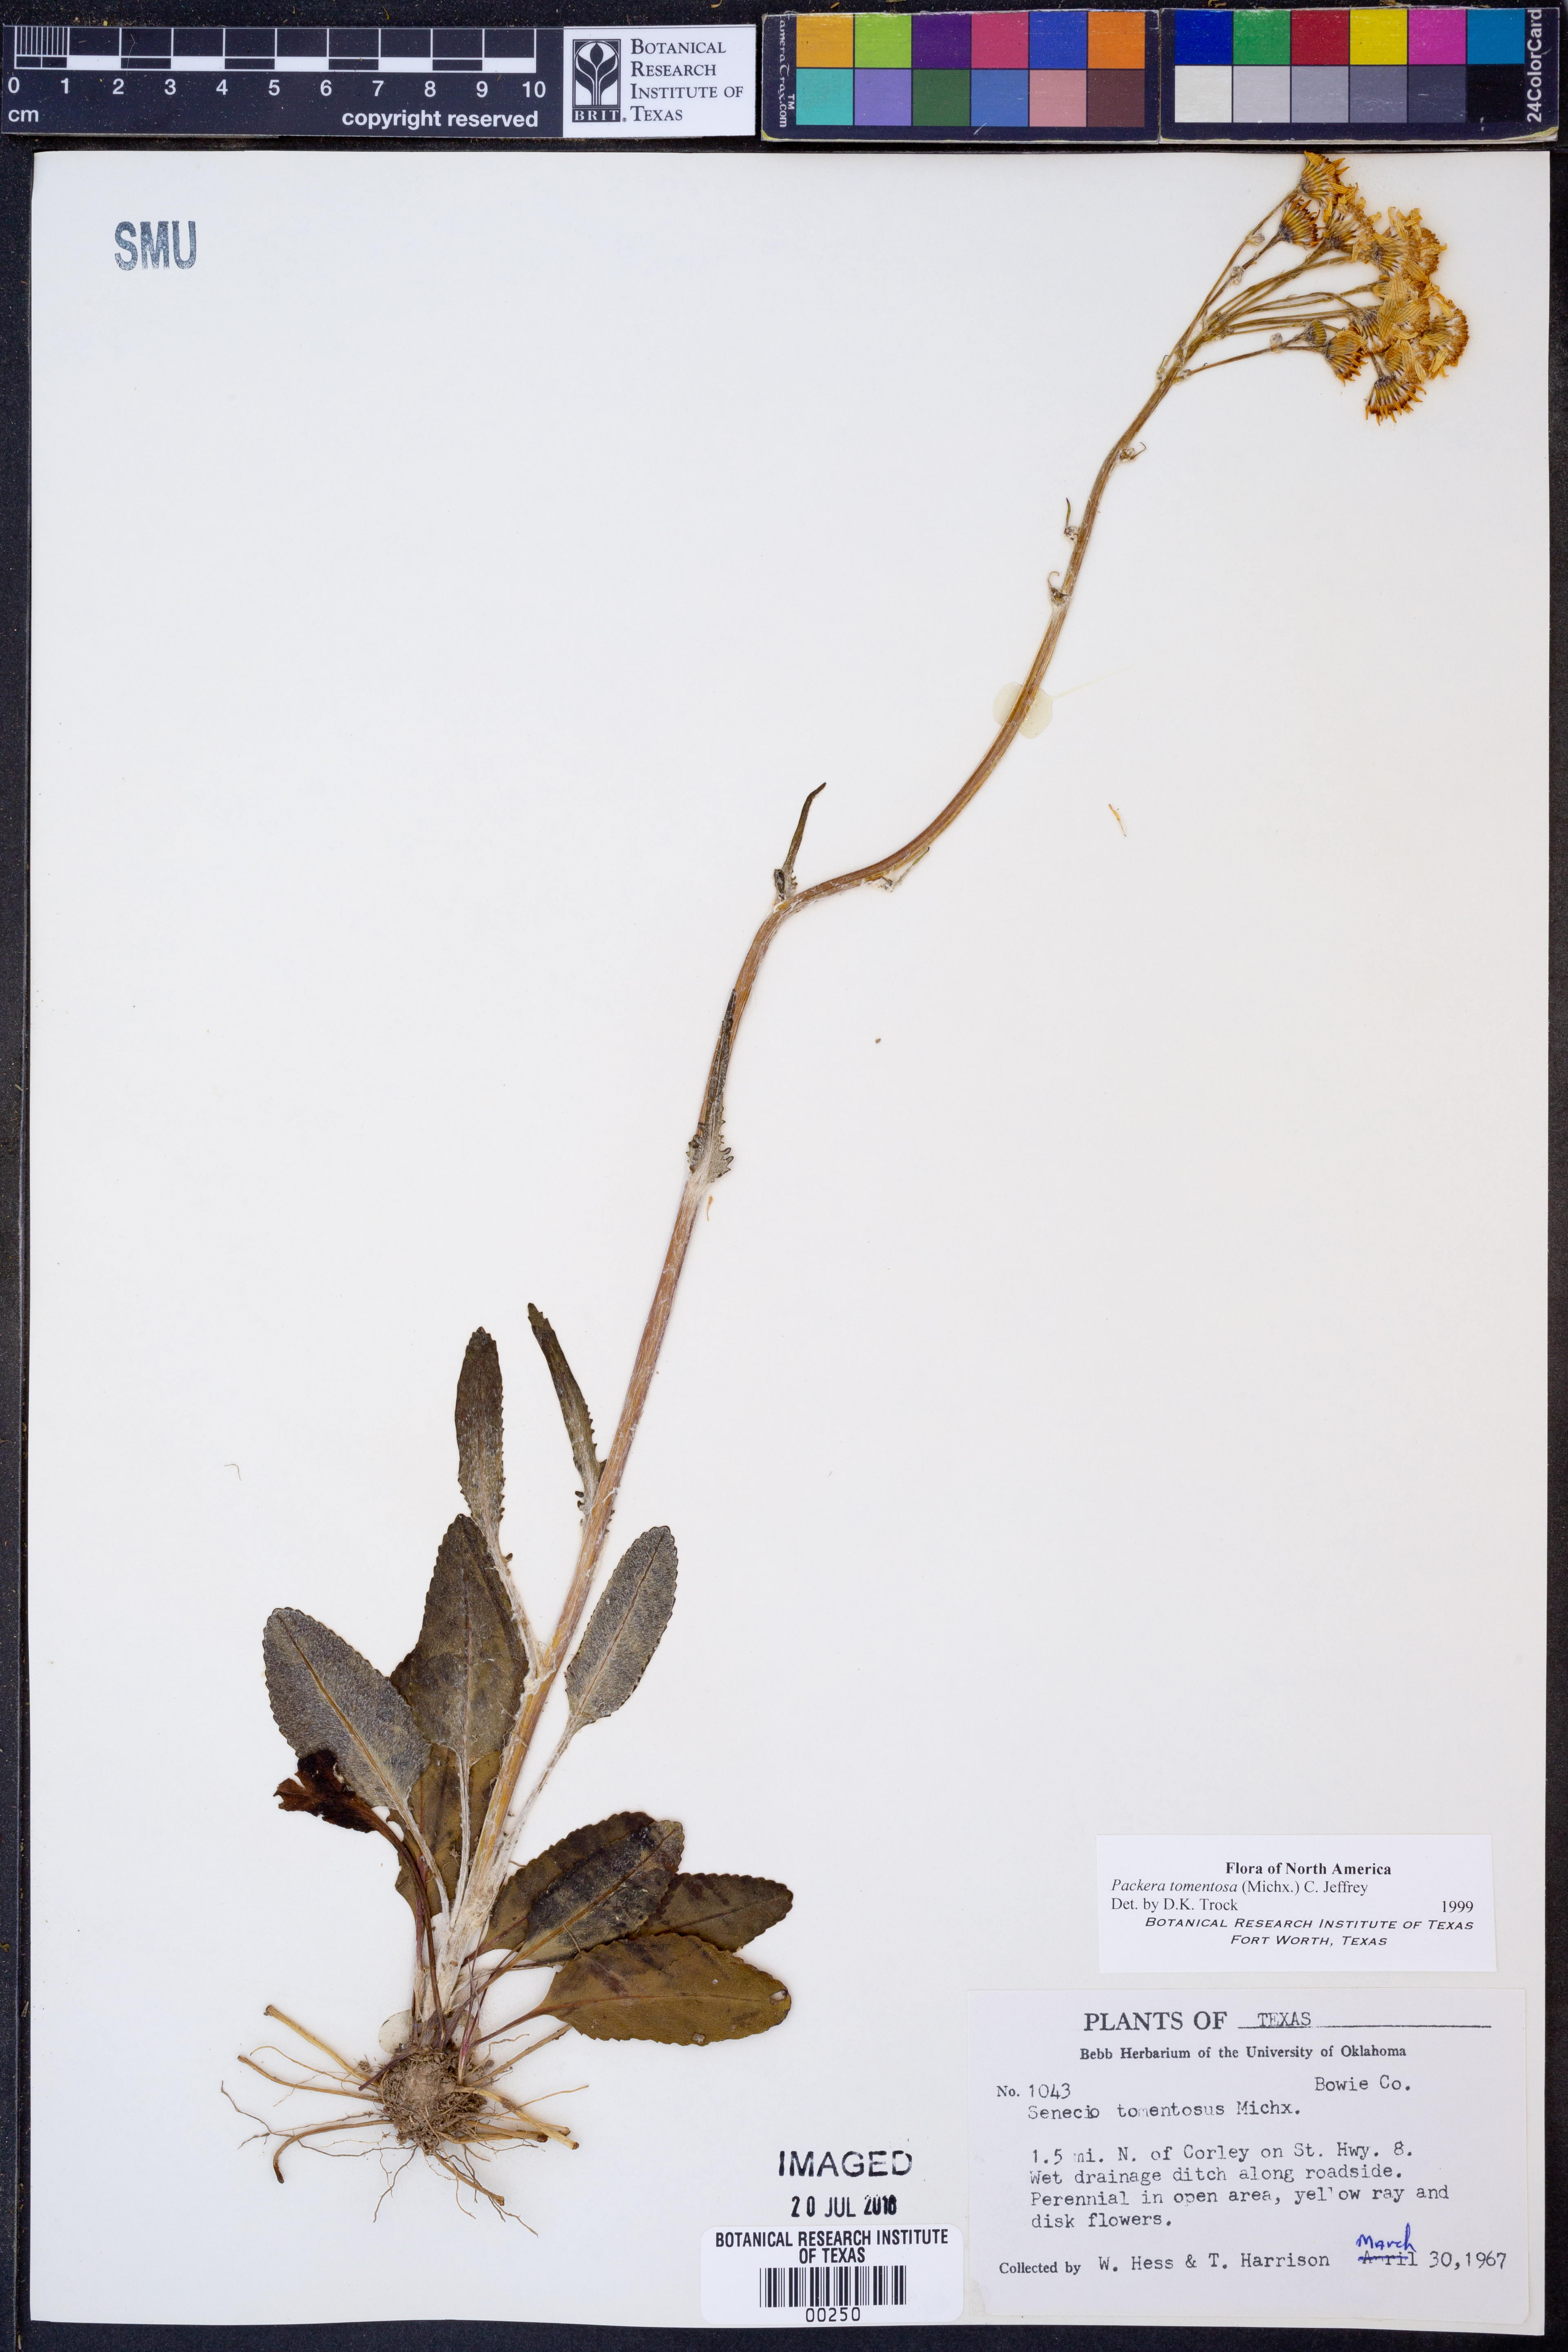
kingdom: Plantae
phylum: Tracheophyta
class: Magnoliopsida
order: Asterales
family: Asteraceae
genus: Packera
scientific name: Packera dubia
